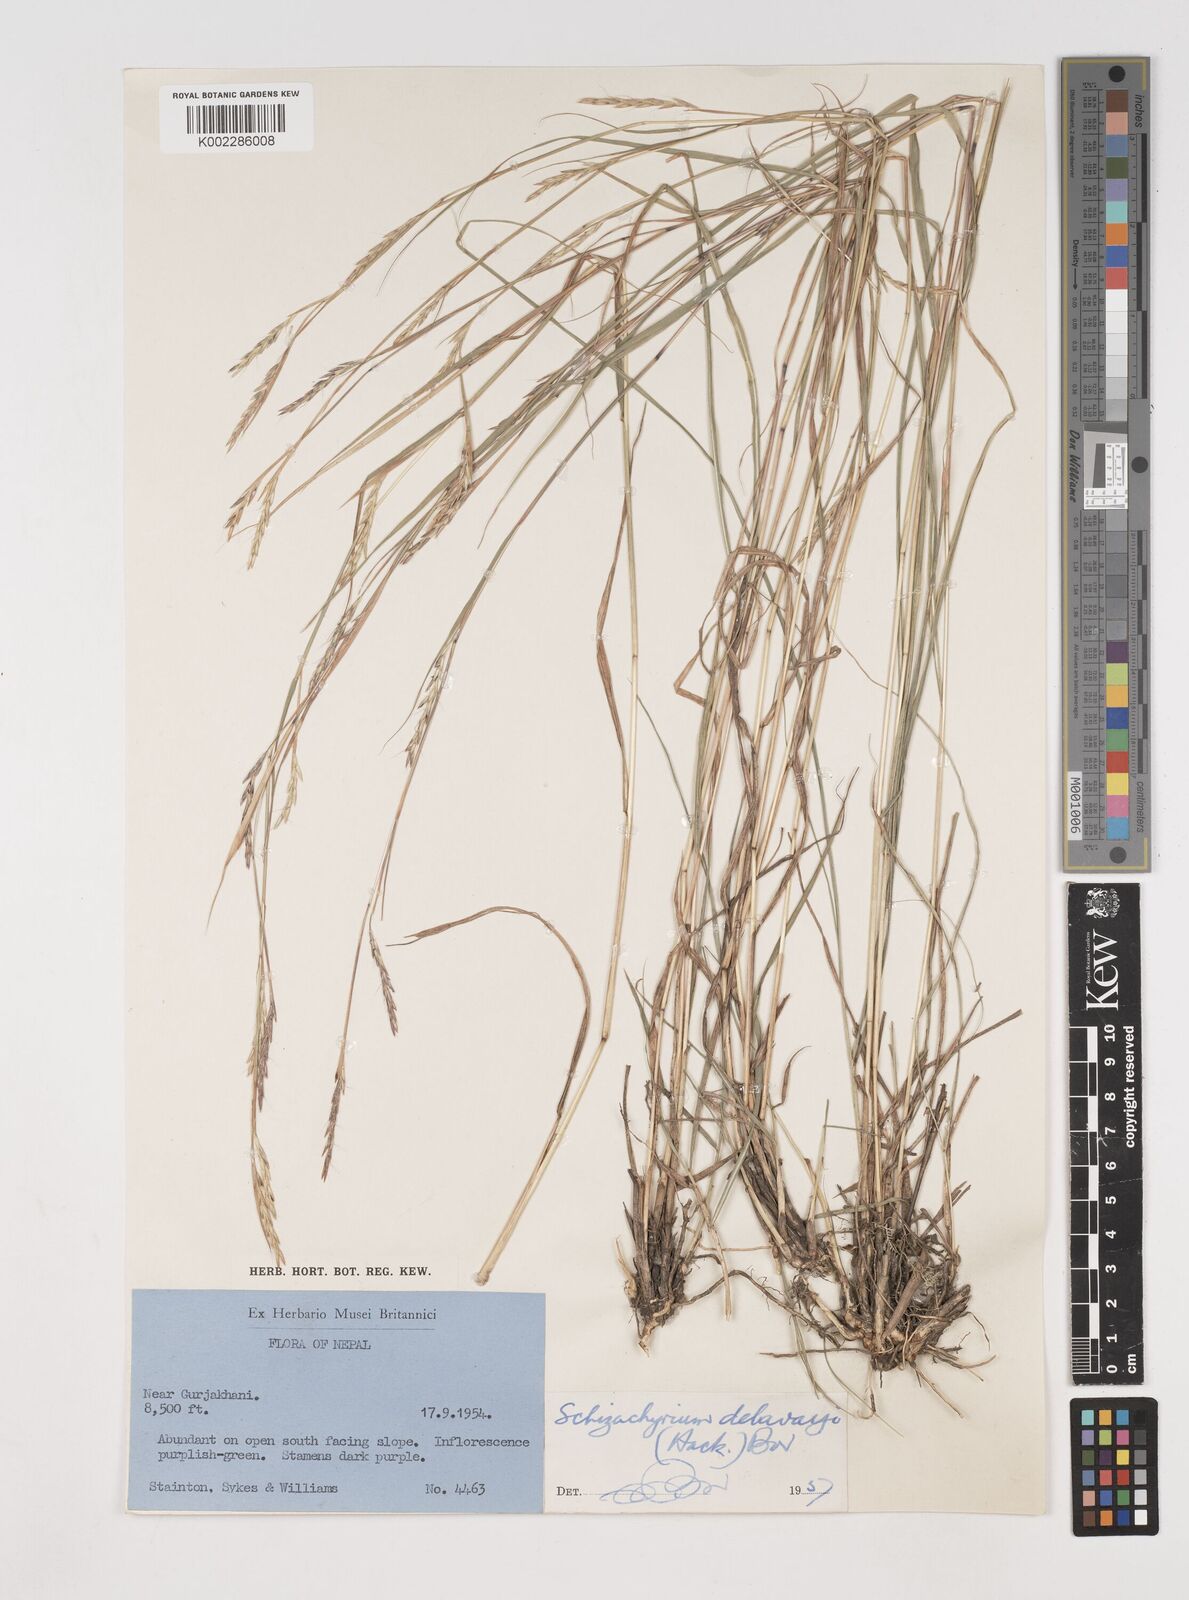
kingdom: Plantae
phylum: Tracheophyta
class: Liliopsida
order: Poales
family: Poaceae
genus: Schizachyrium
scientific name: Schizachyrium delavayi
